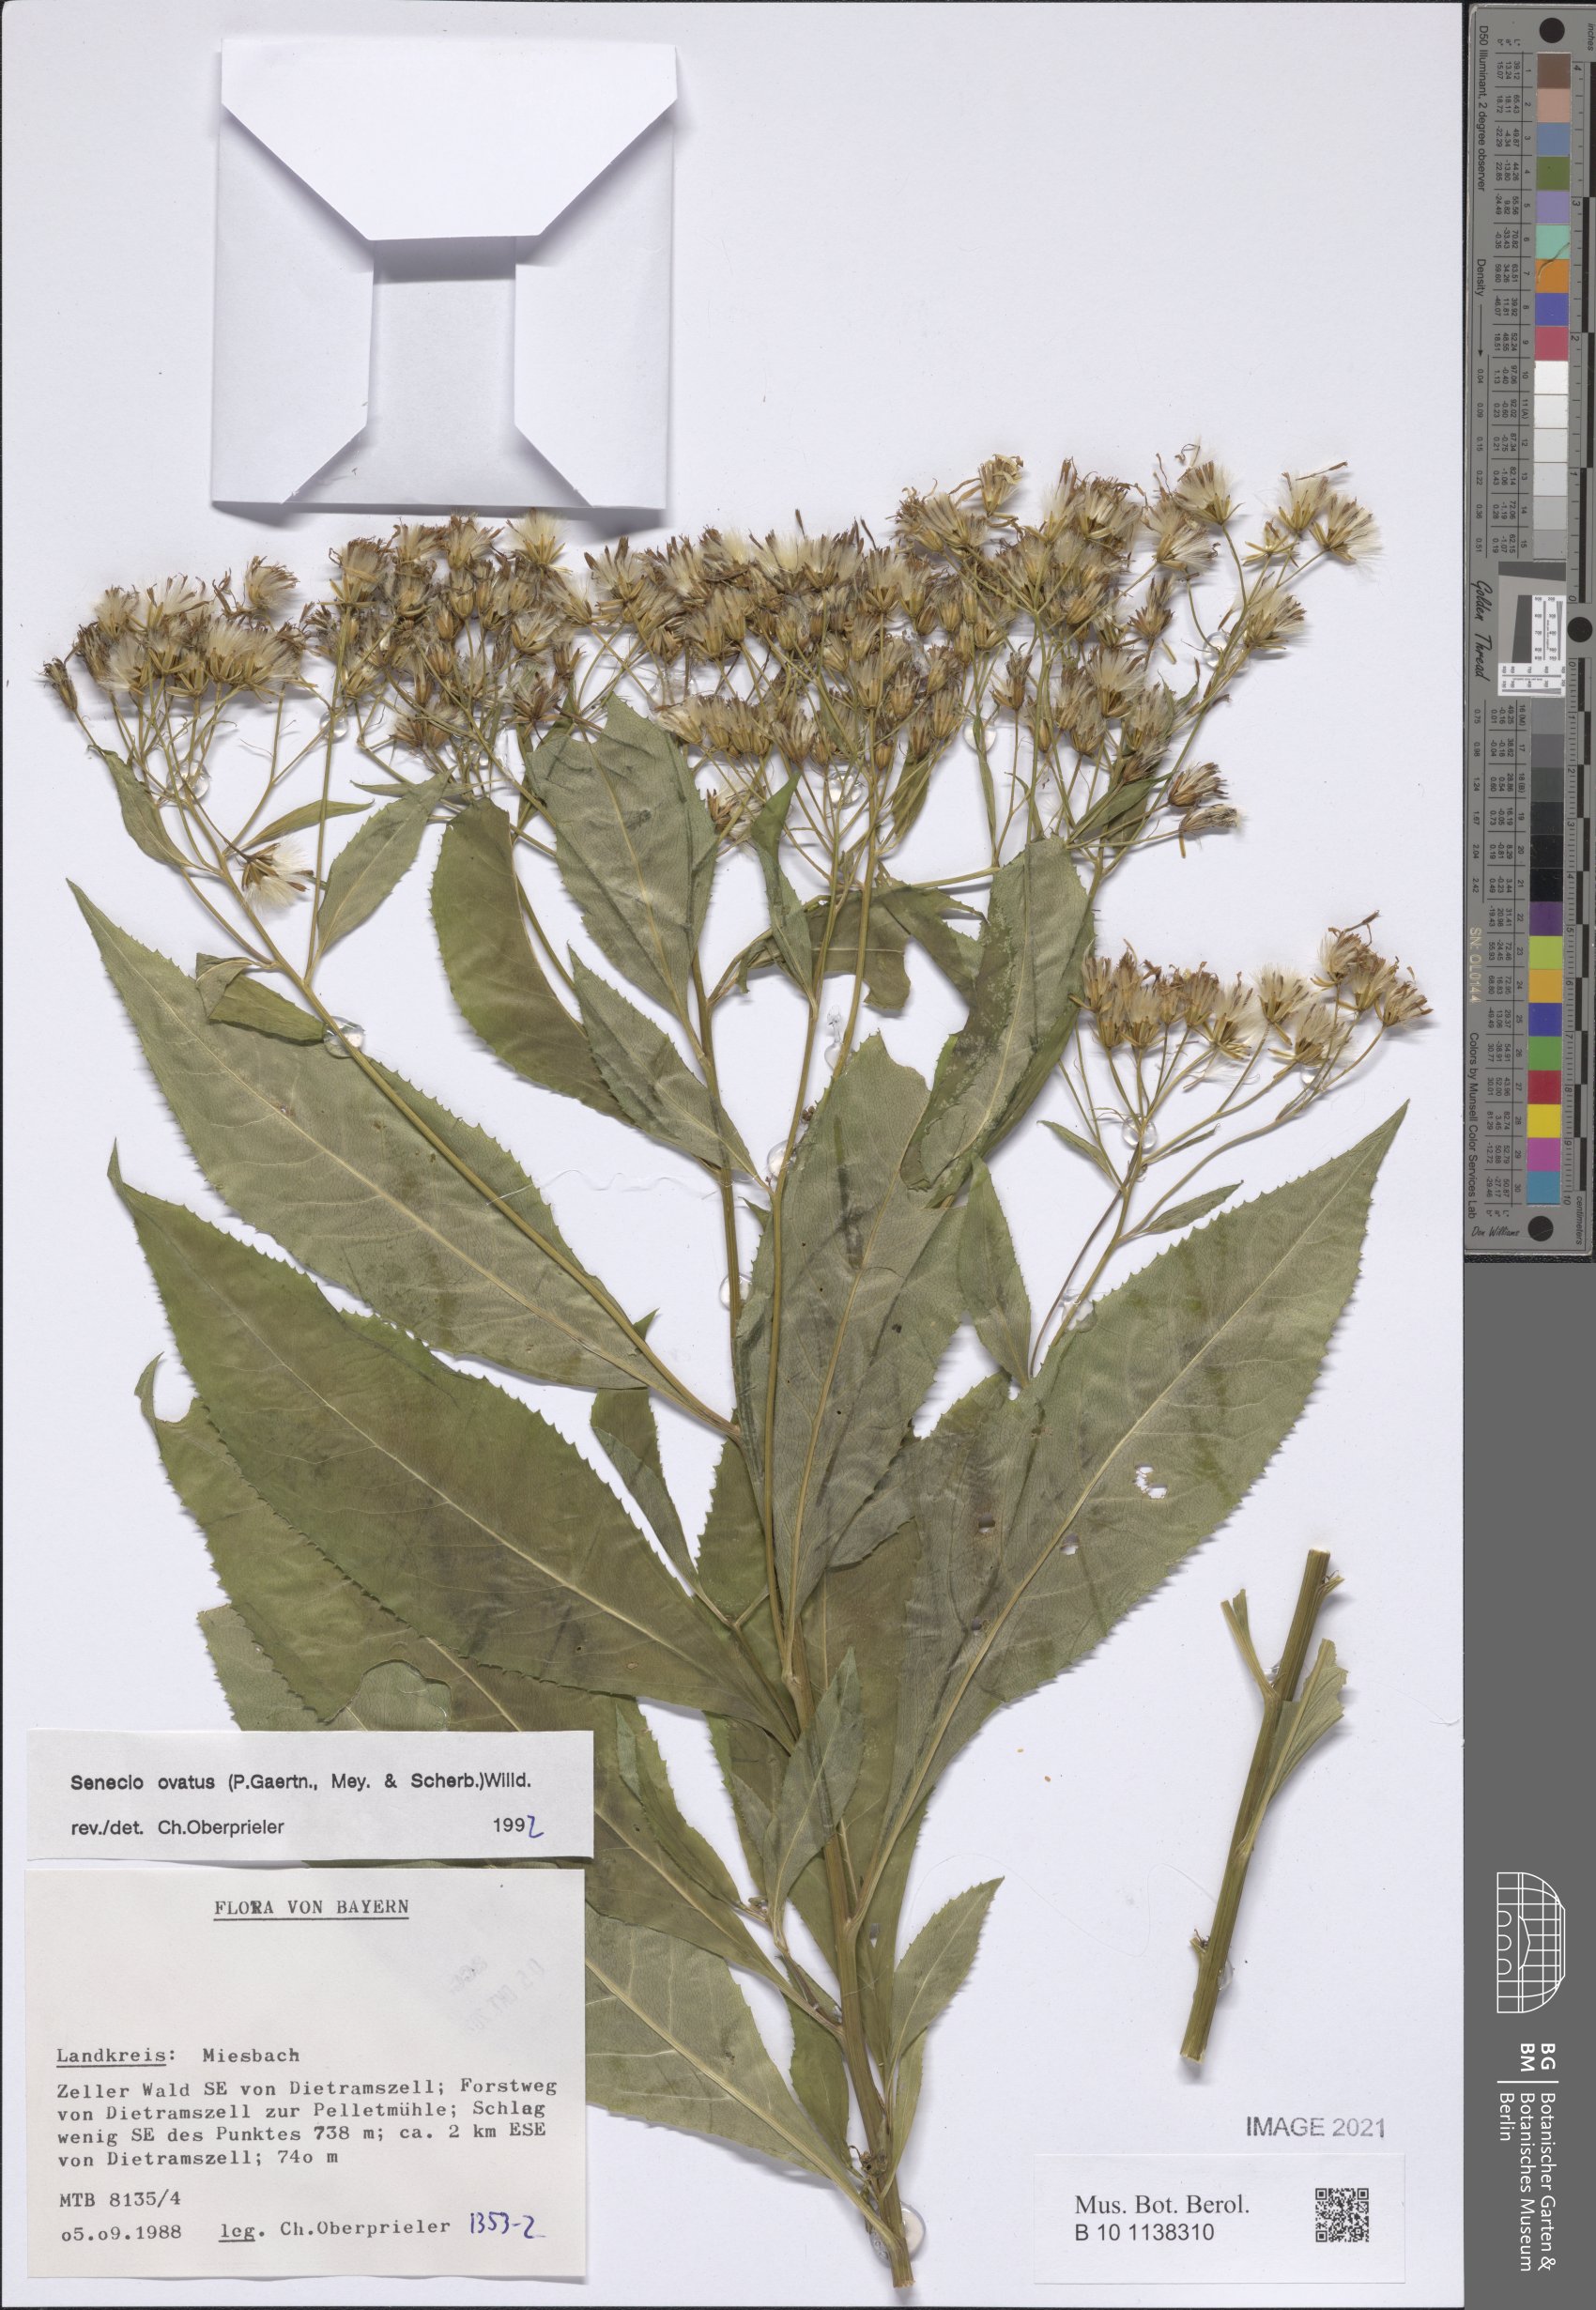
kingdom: Plantae
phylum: Tracheophyta
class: Magnoliopsida
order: Asterales
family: Asteraceae
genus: Senecio
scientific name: Senecio ovatus
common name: Wood ragwort
